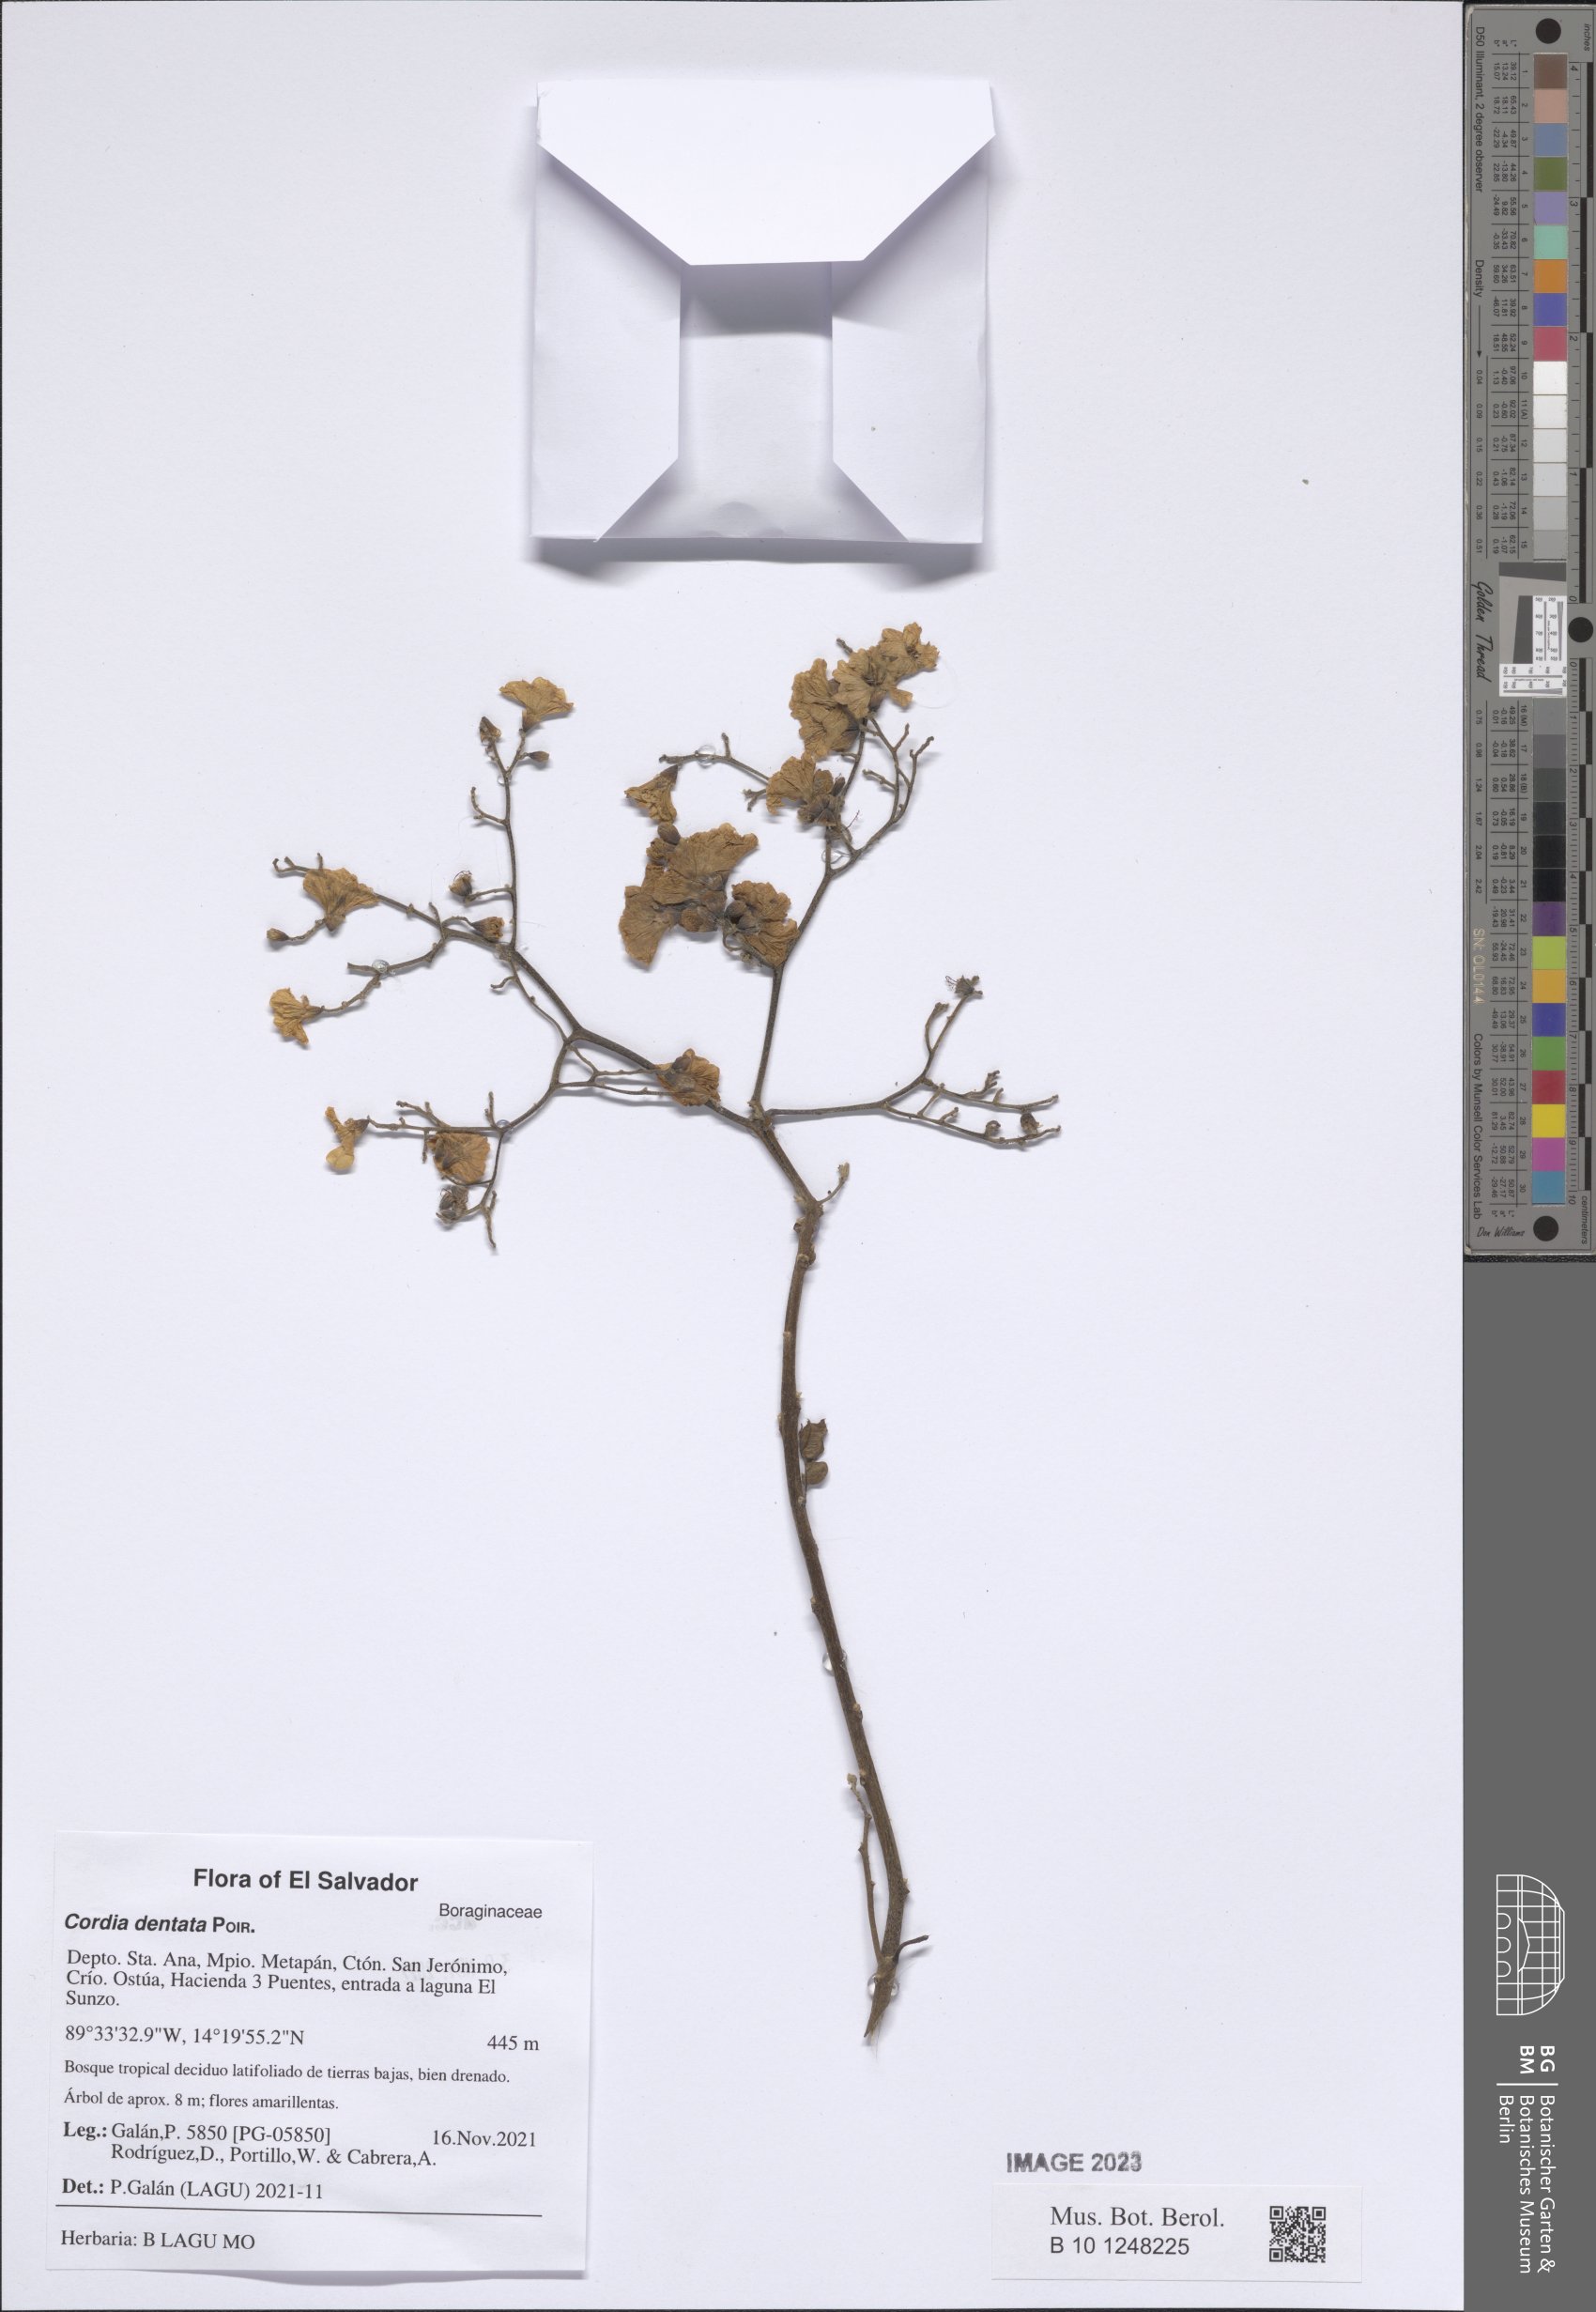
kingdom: Plantae
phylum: Tracheophyta
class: Magnoliopsida
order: Boraginales
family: Cordiaceae
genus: Cordia
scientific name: Cordia dentata
